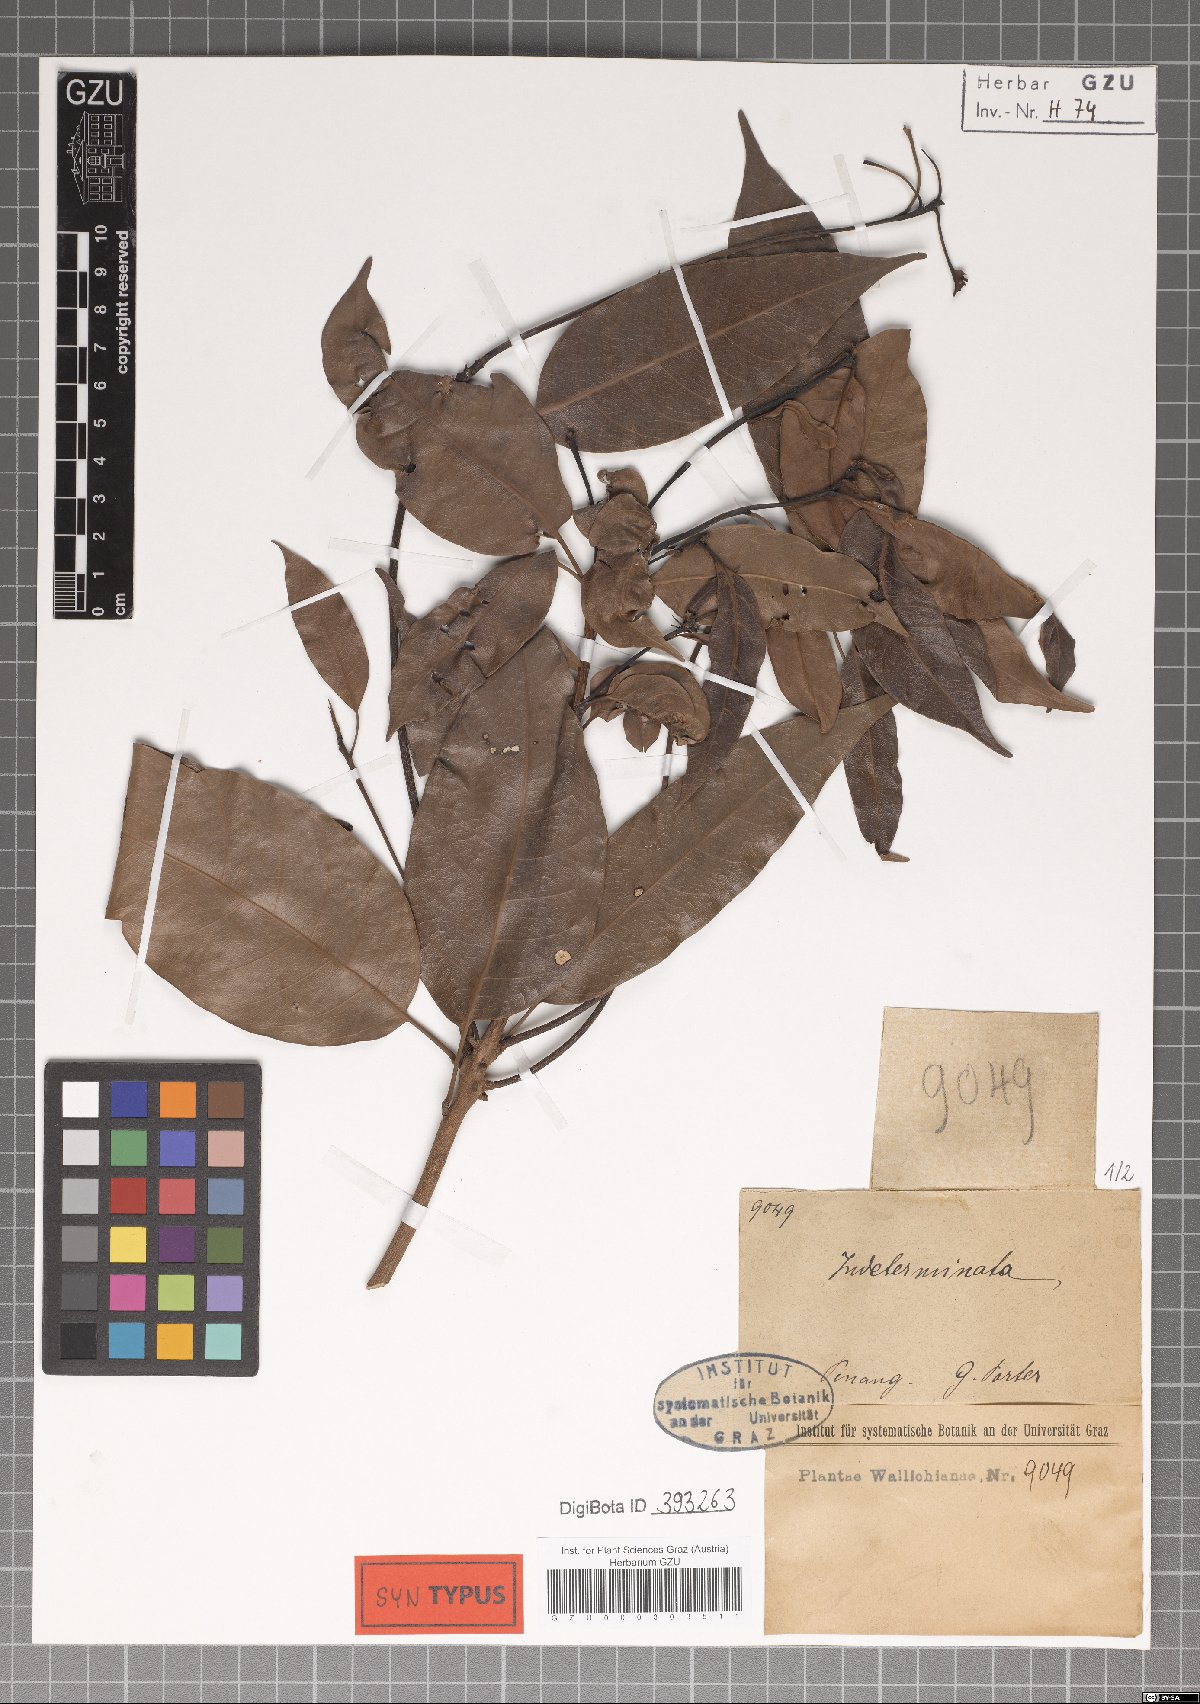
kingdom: Plantae
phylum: Tracheophyta
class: Magnoliopsida
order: Sapindales
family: Anacardiaceae
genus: Gluta
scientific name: Gluta elegans
